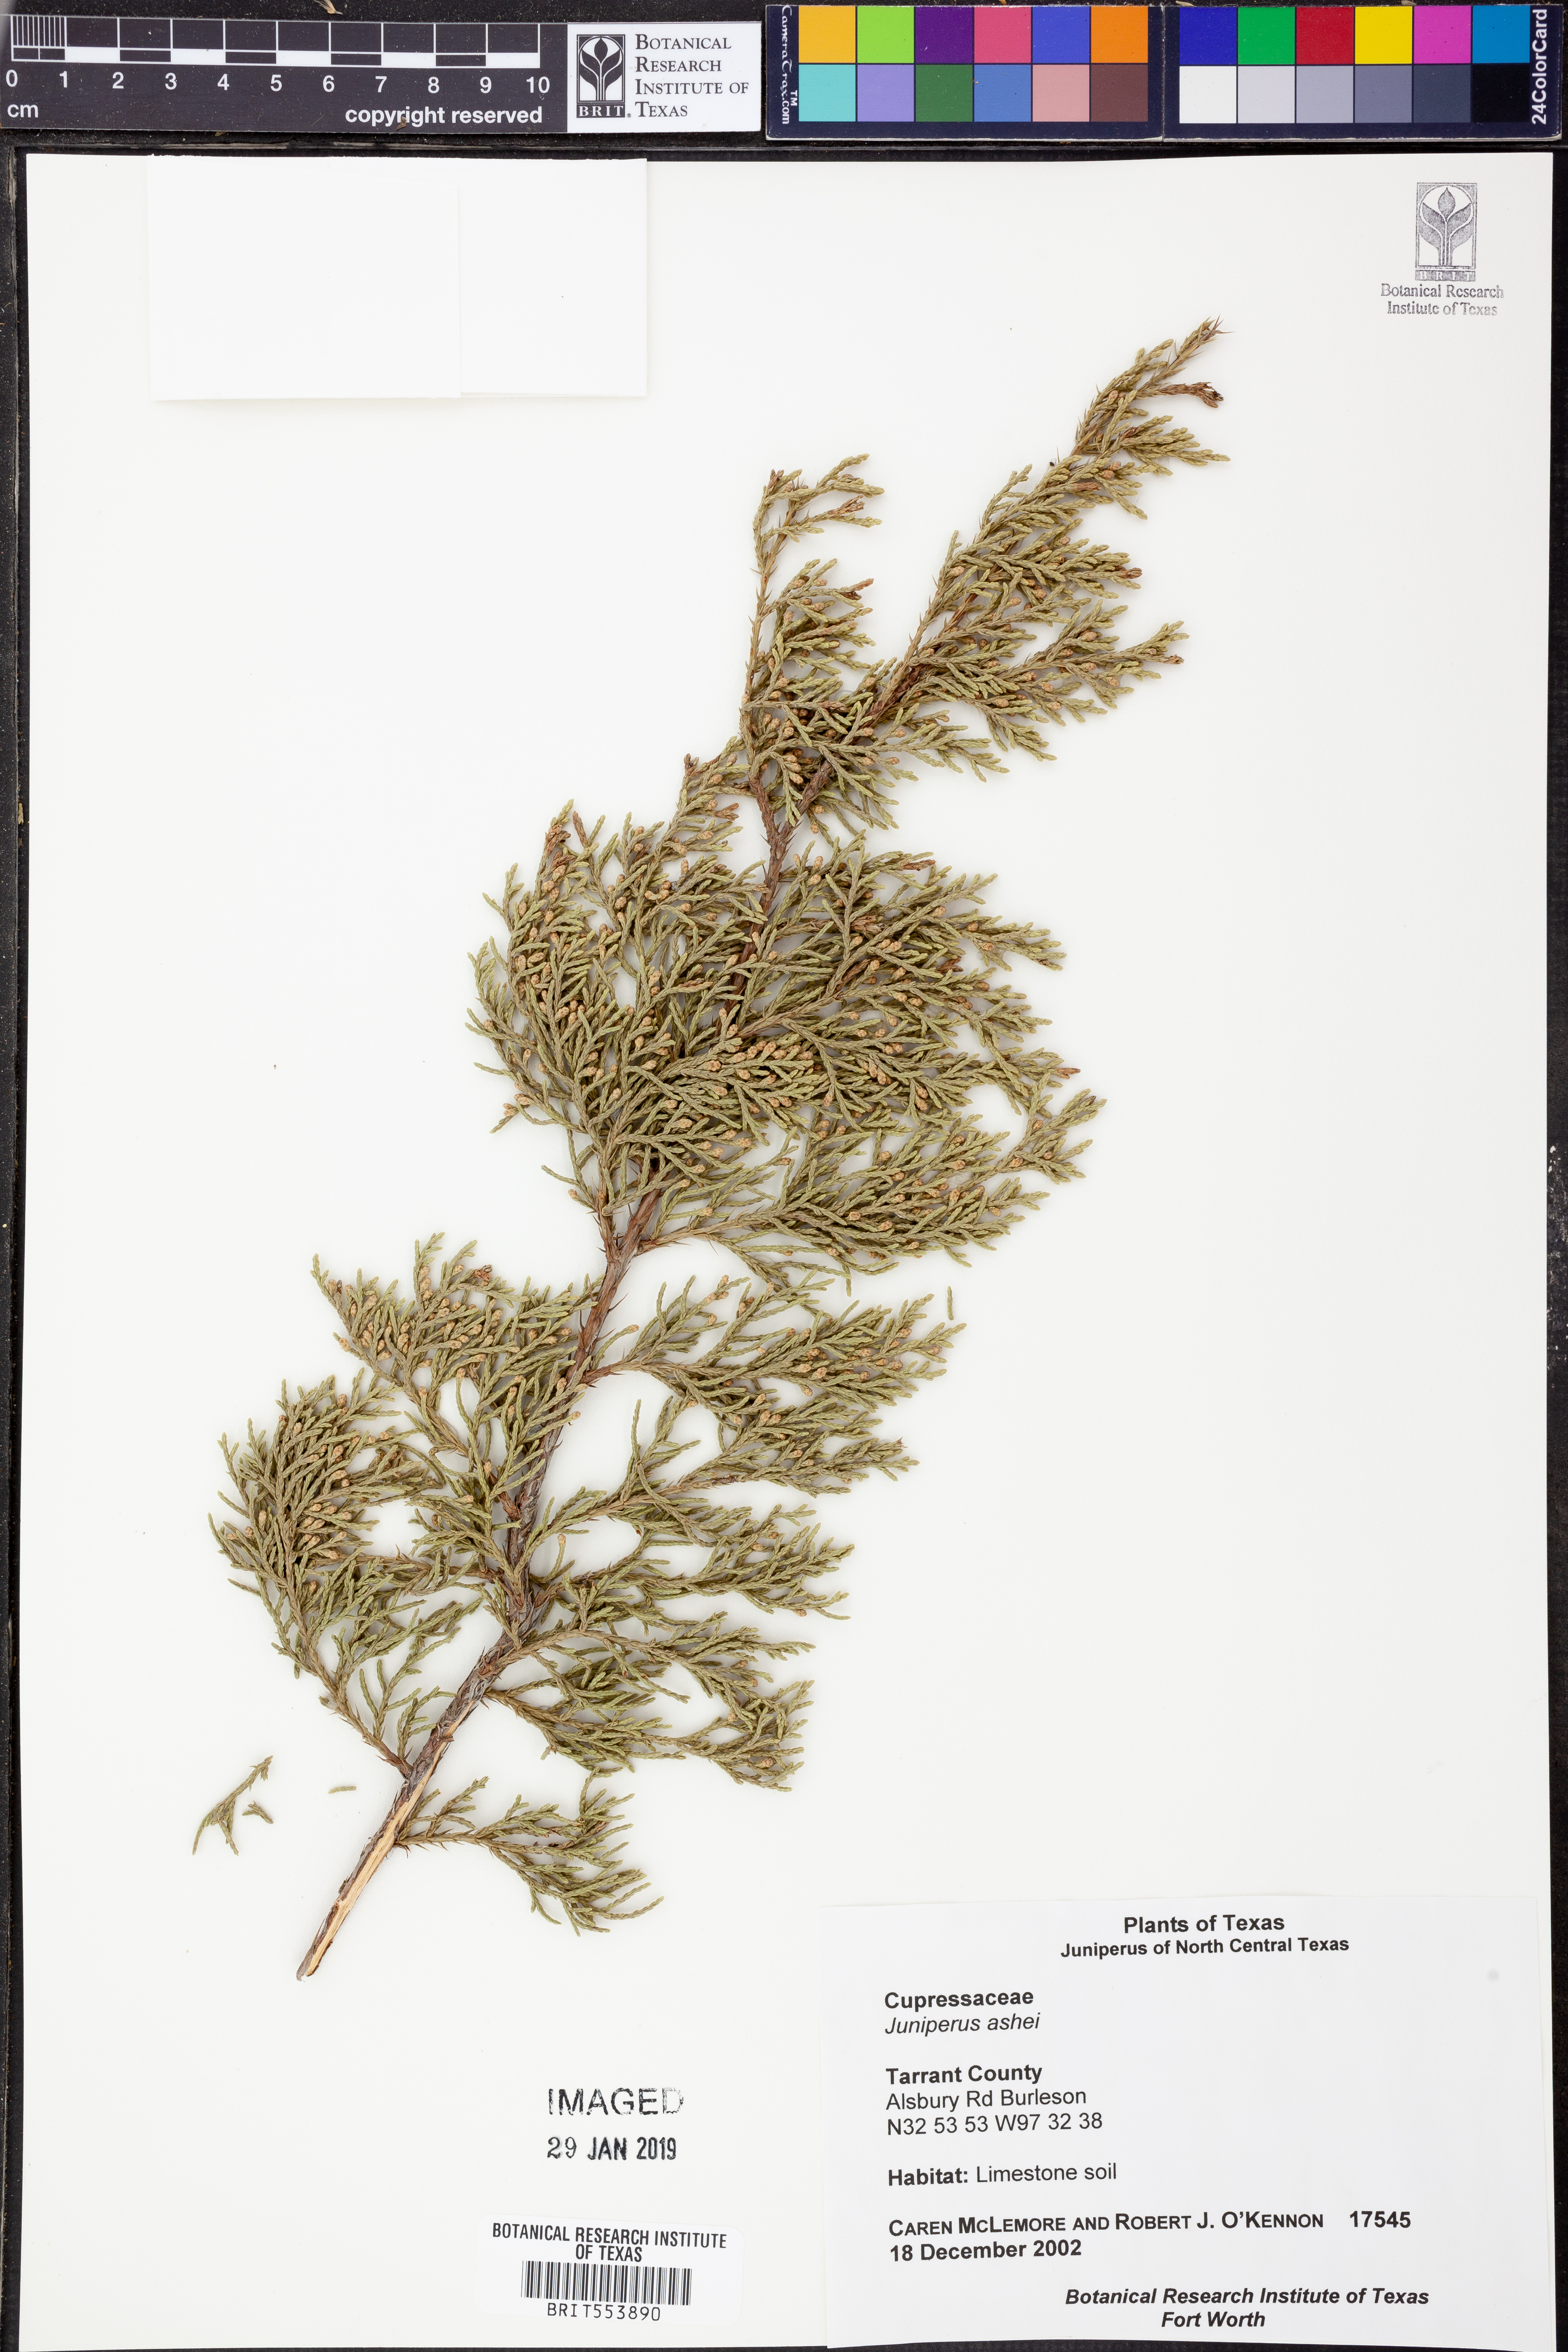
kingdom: Plantae
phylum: Tracheophyta
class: Pinopsida
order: Pinales
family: Cupressaceae
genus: Juniperus
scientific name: Juniperus ashei
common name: Mexican juniper
